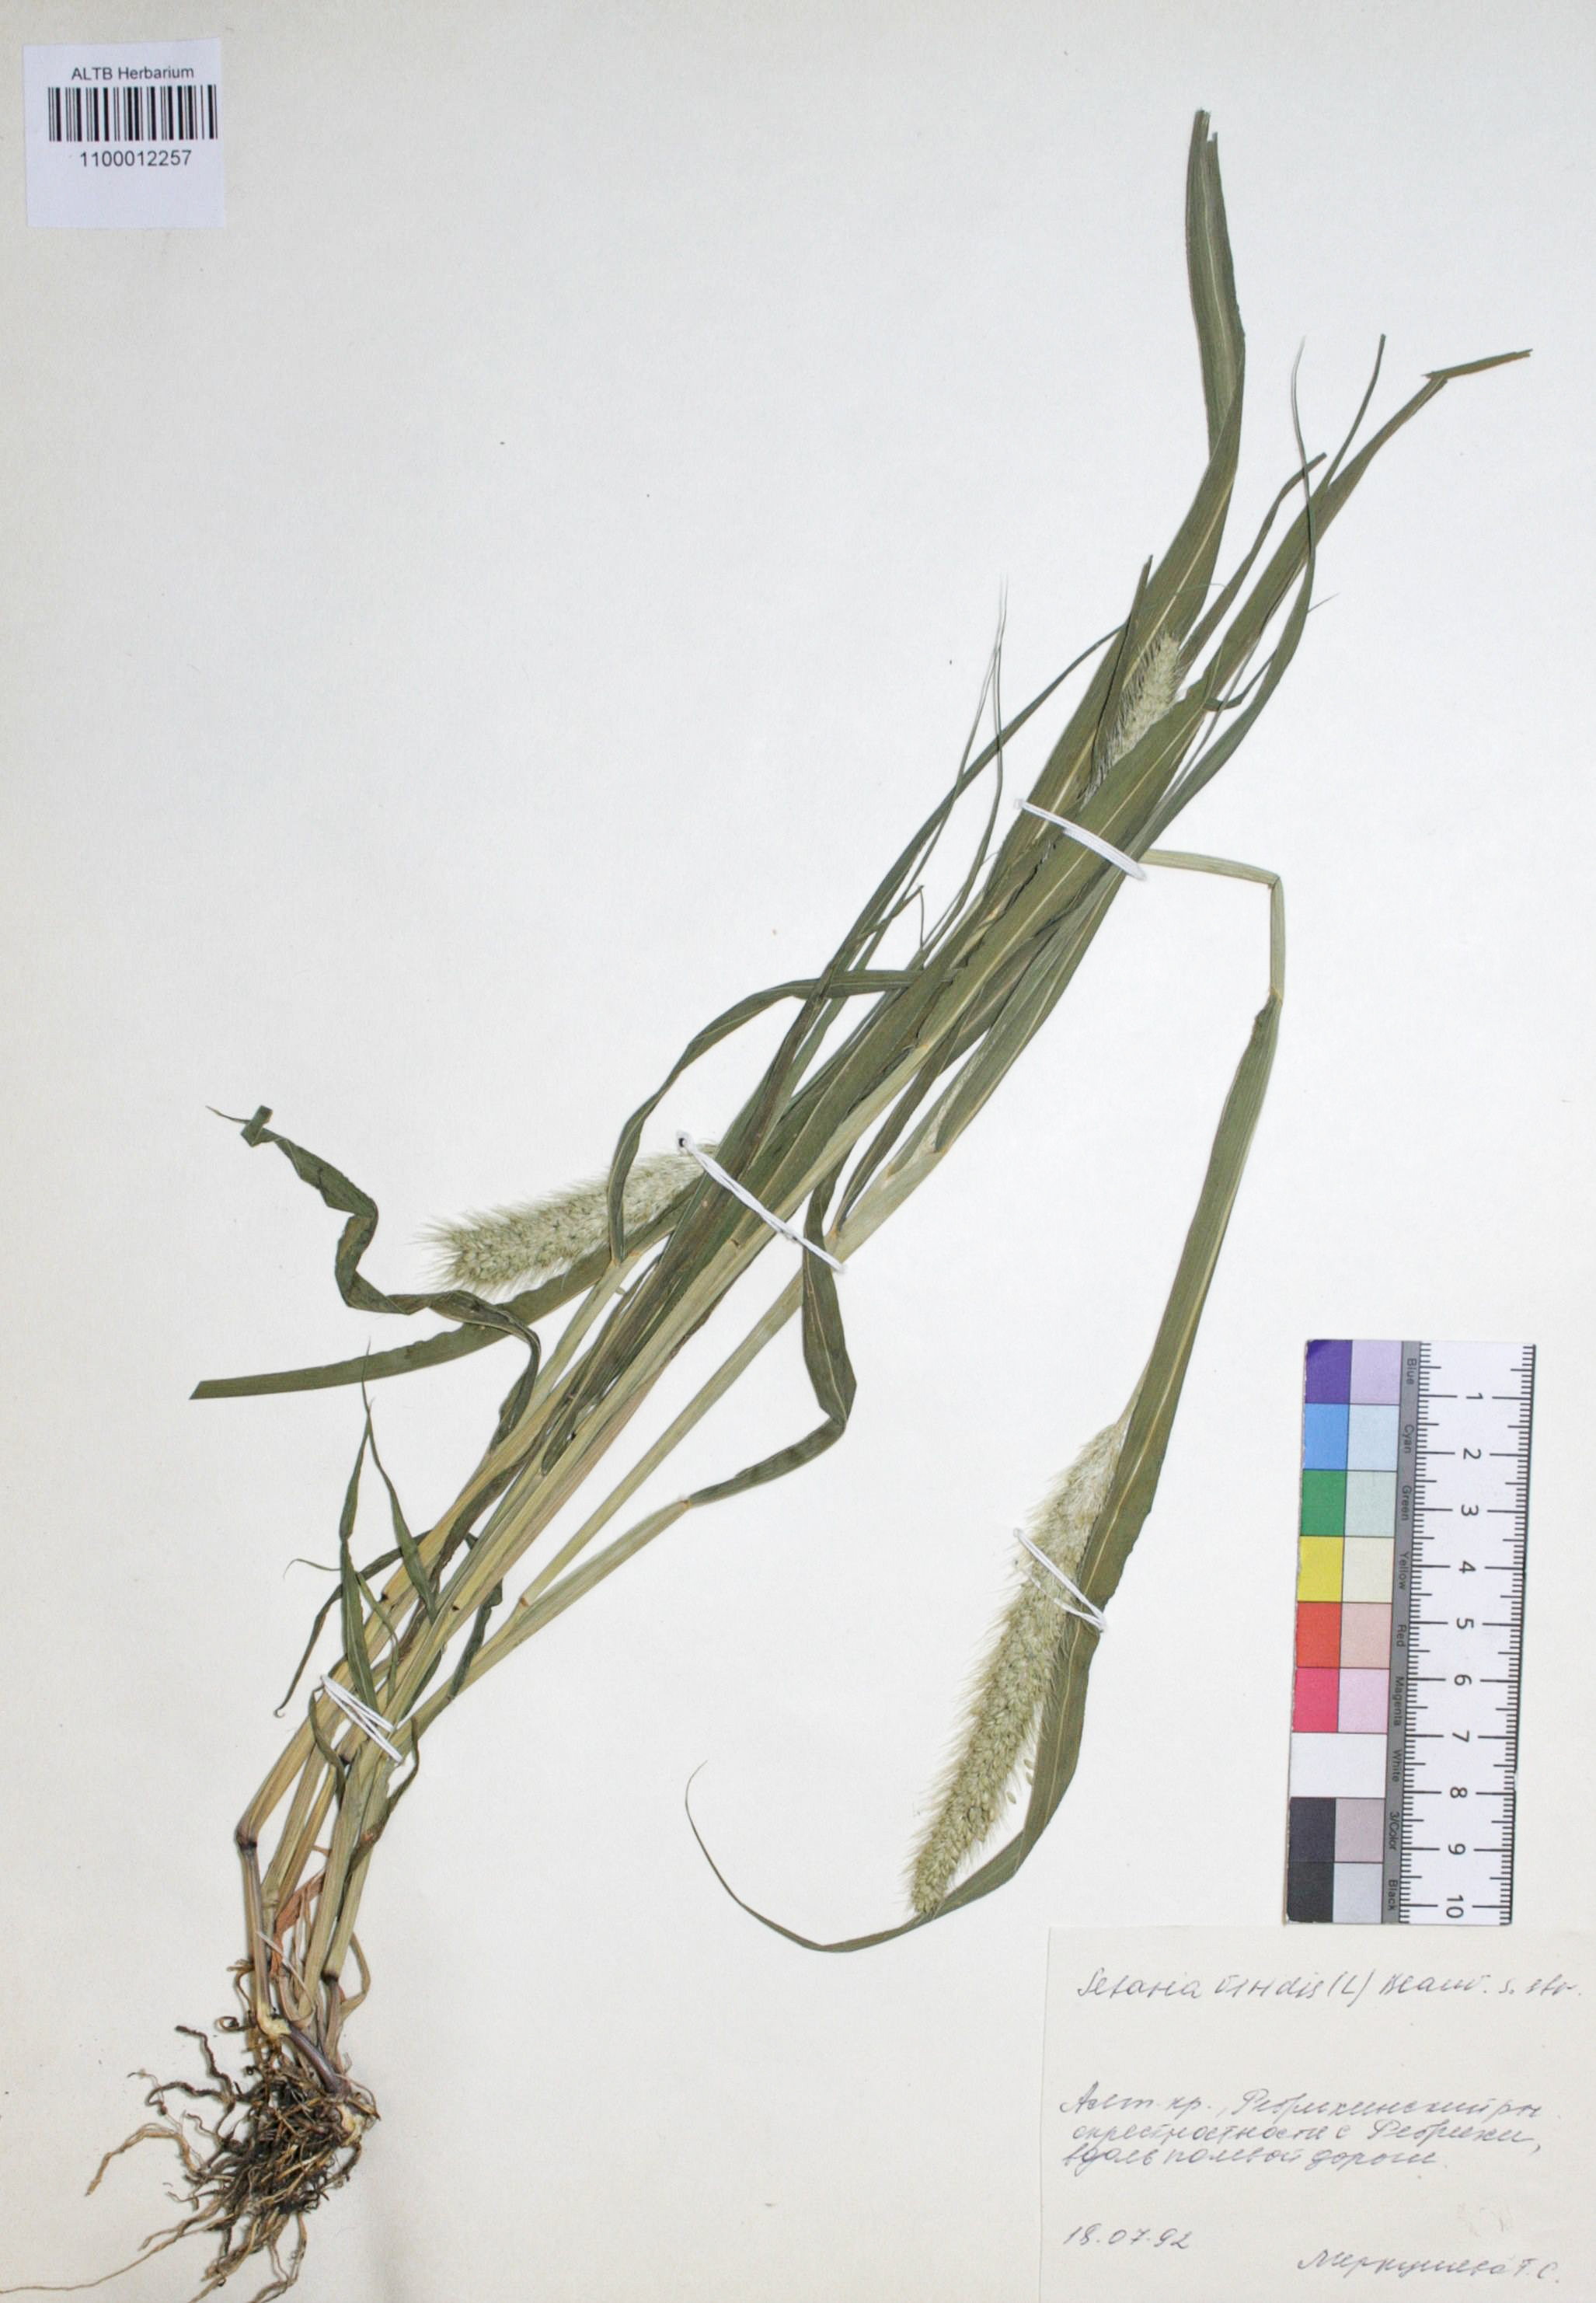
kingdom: Plantae
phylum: Tracheophyta
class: Liliopsida
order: Poales
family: Poaceae
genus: Setaria
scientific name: Setaria viridis
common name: Green bristlegrass
